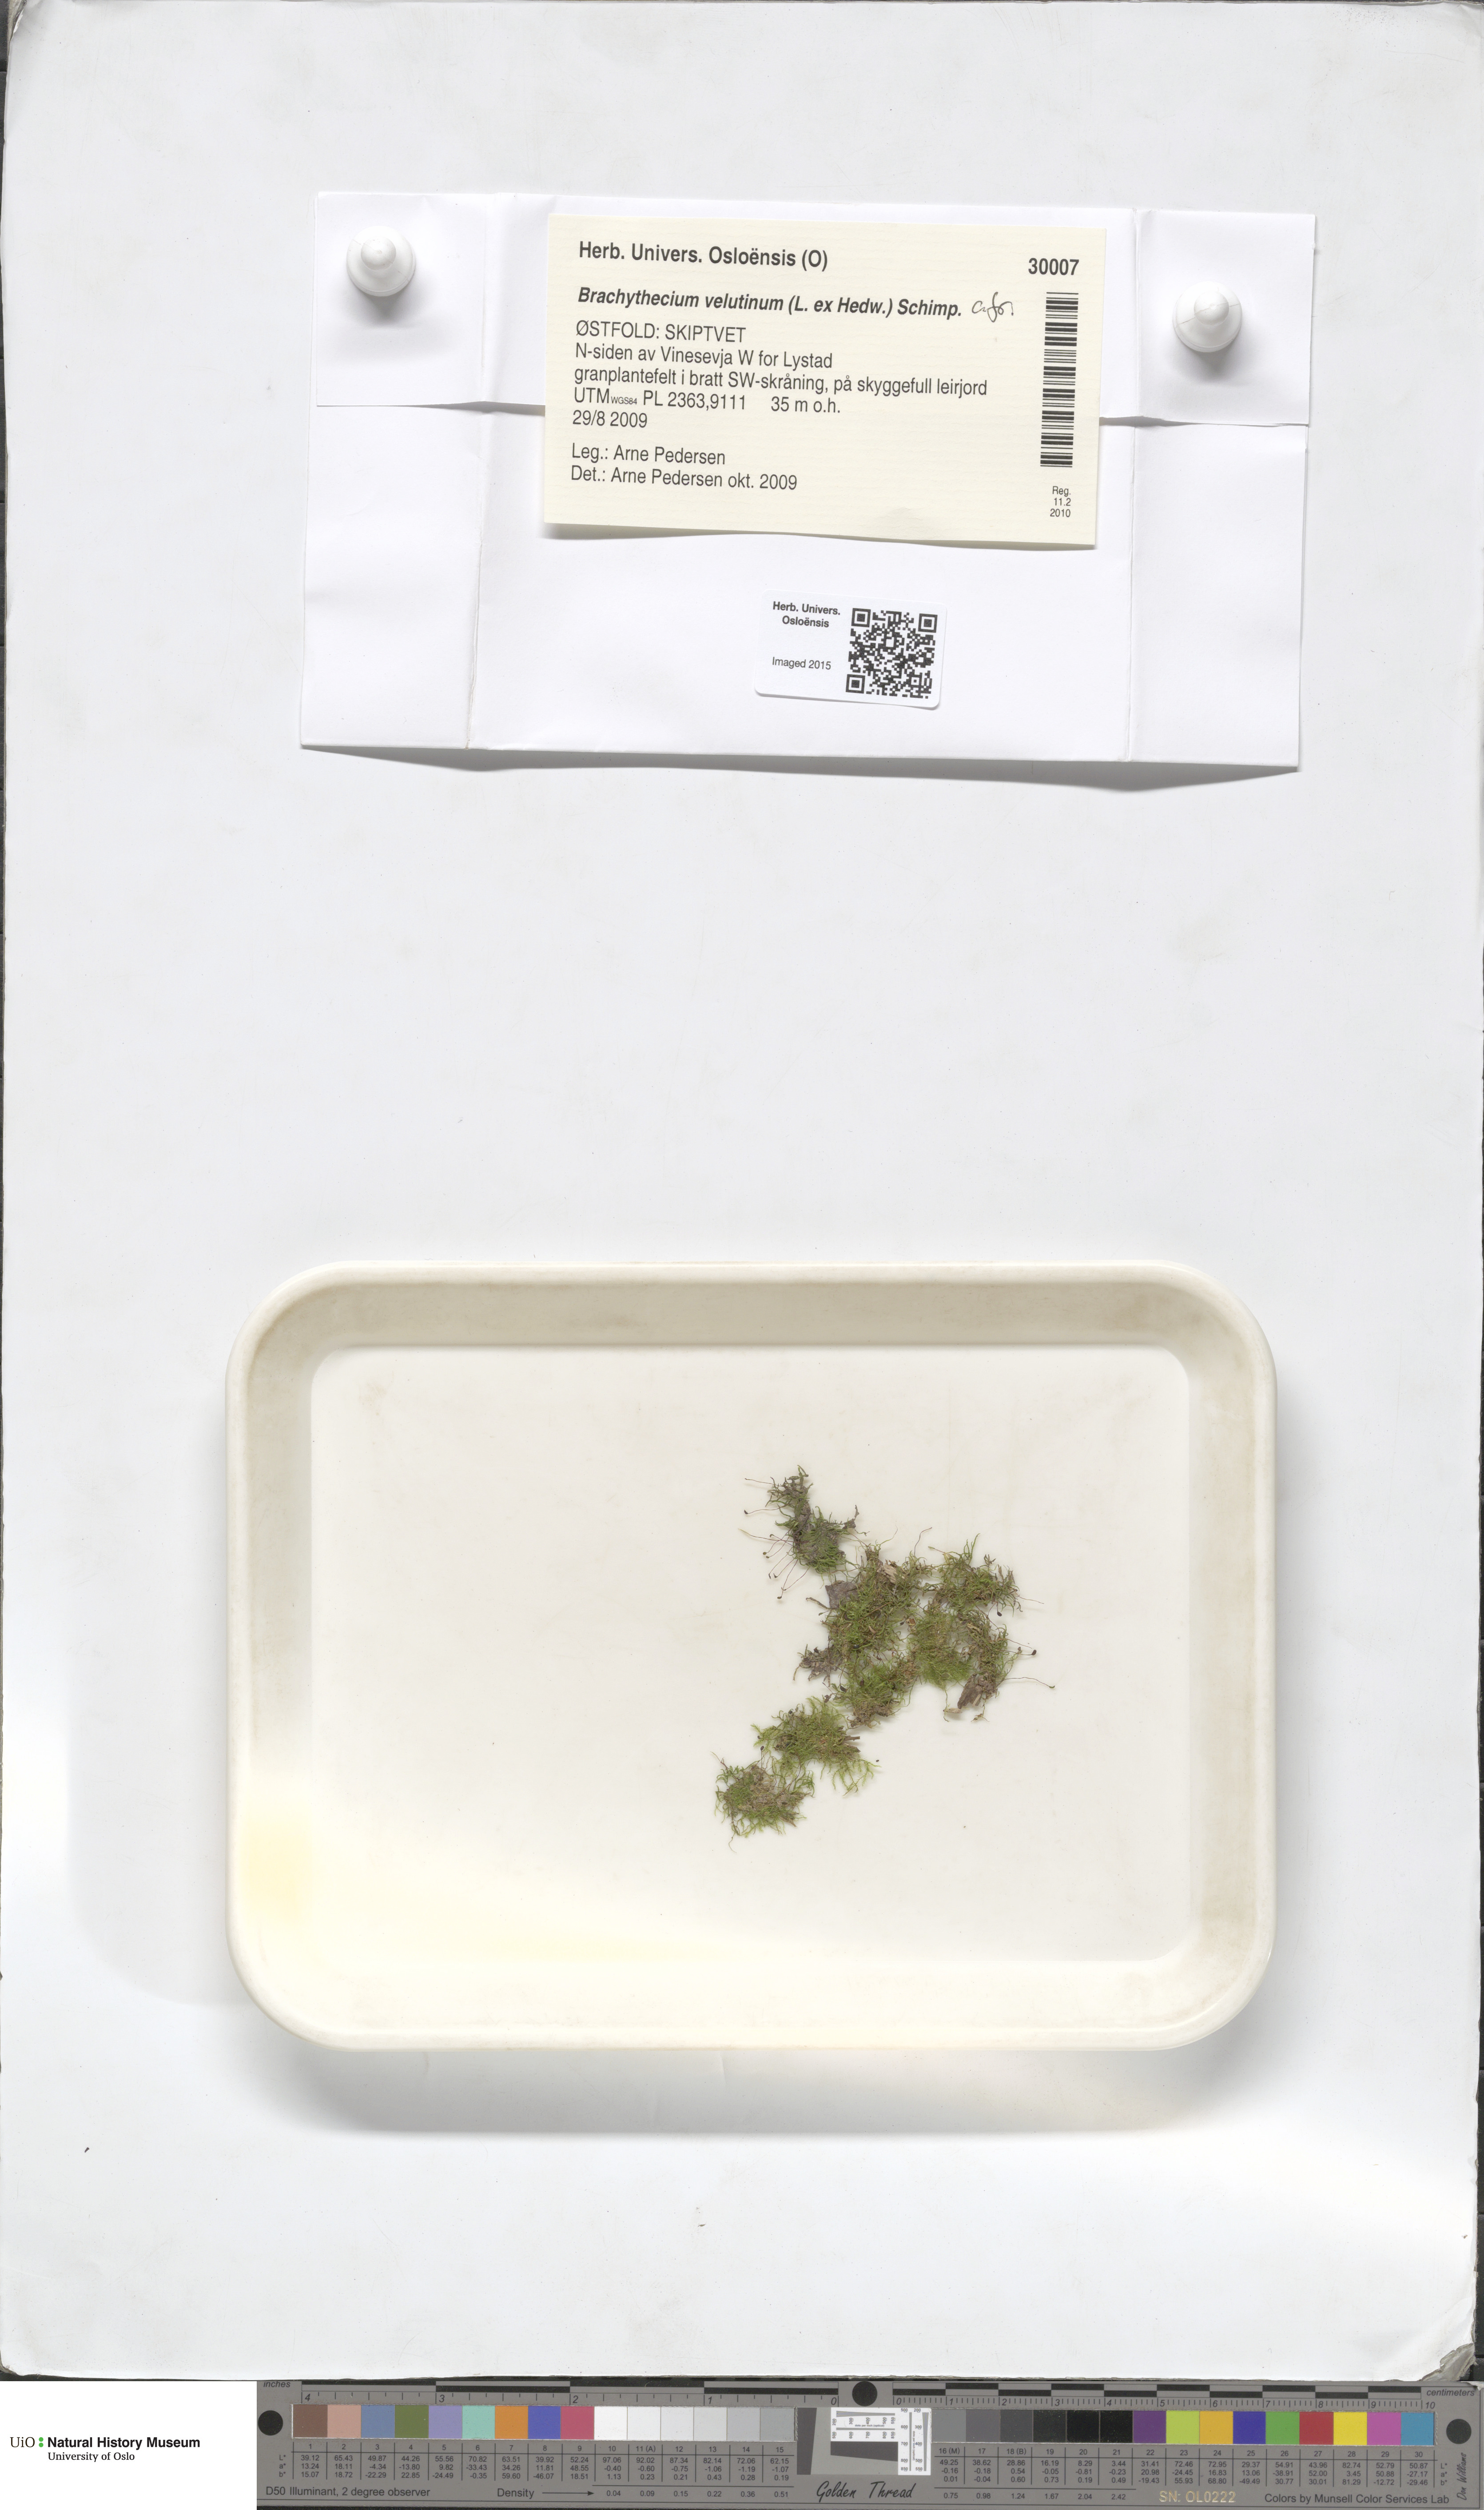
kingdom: Plantae
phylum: Bryophyta
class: Bryopsida
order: Hypnales
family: Brachytheciaceae
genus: Brachytheciastrum
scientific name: Brachytheciastrum velutinum
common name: Velvet feather-moss
